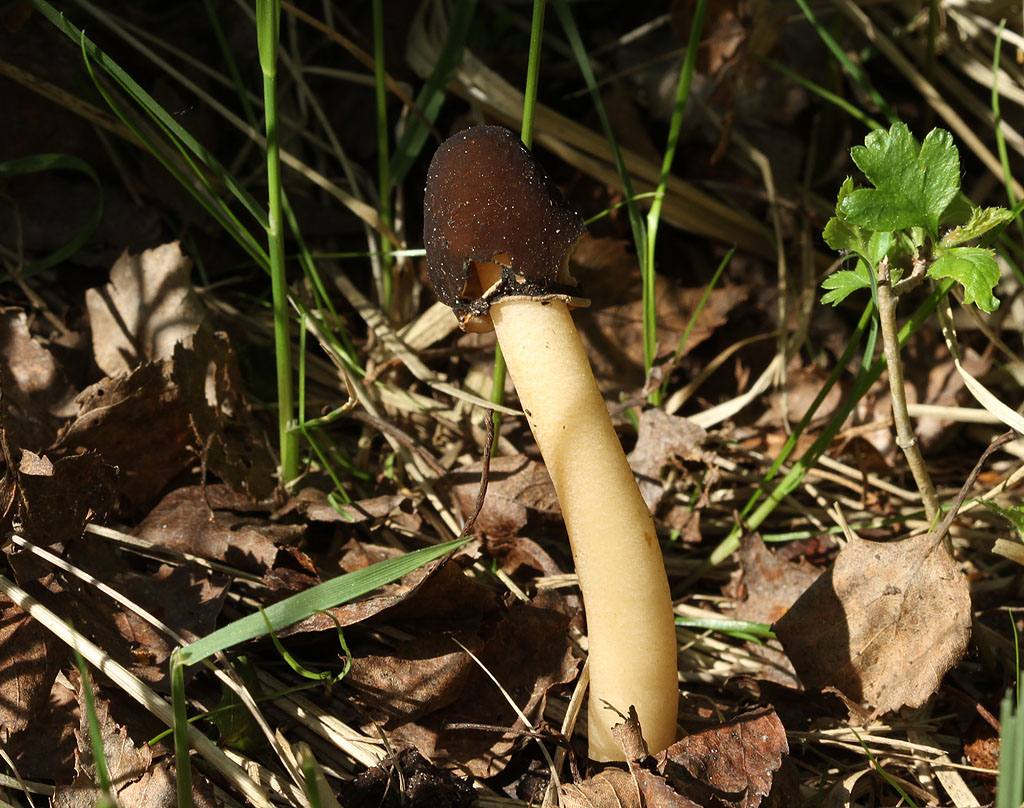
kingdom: Fungi
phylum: Ascomycota
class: Pezizomycetes
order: Pezizales
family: Morchellaceae
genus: Verpa
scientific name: Verpa conica
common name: glat klokkemorkel
